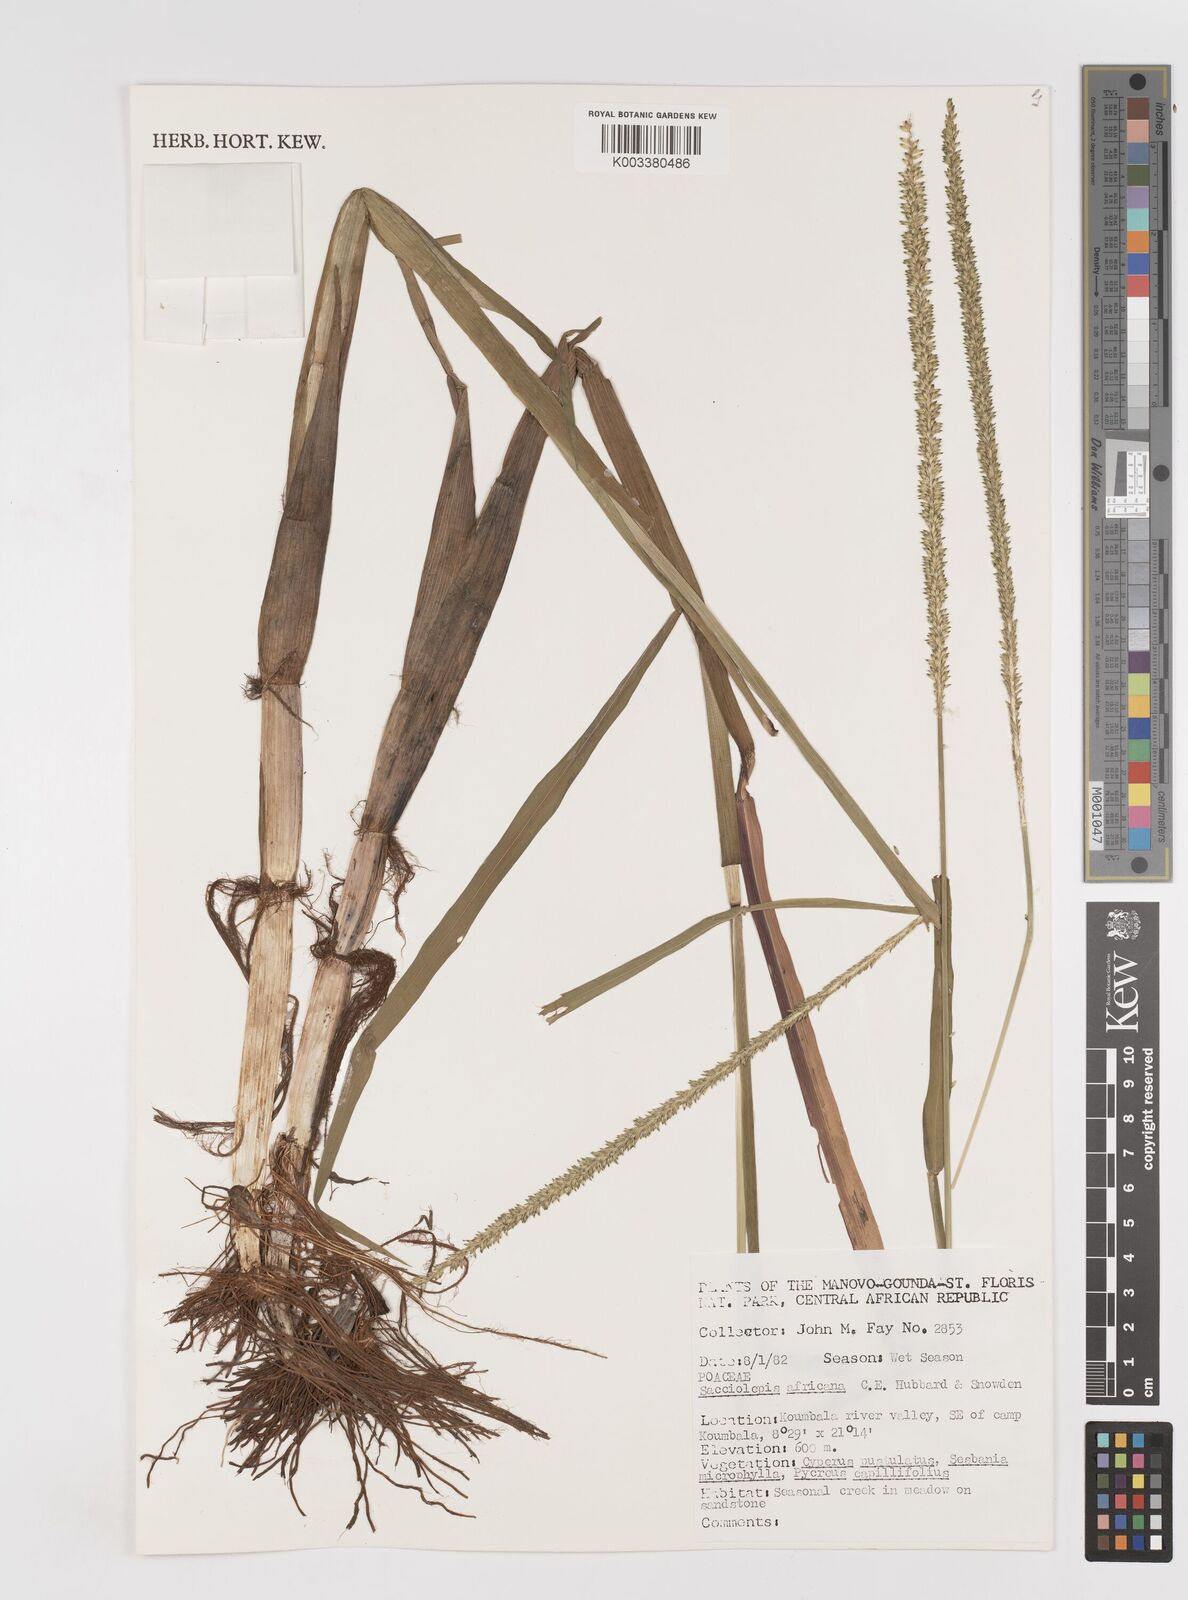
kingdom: Plantae
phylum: Tracheophyta
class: Liliopsida
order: Poales
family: Poaceae
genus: Sacciolepis
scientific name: Sacciolepis africana
